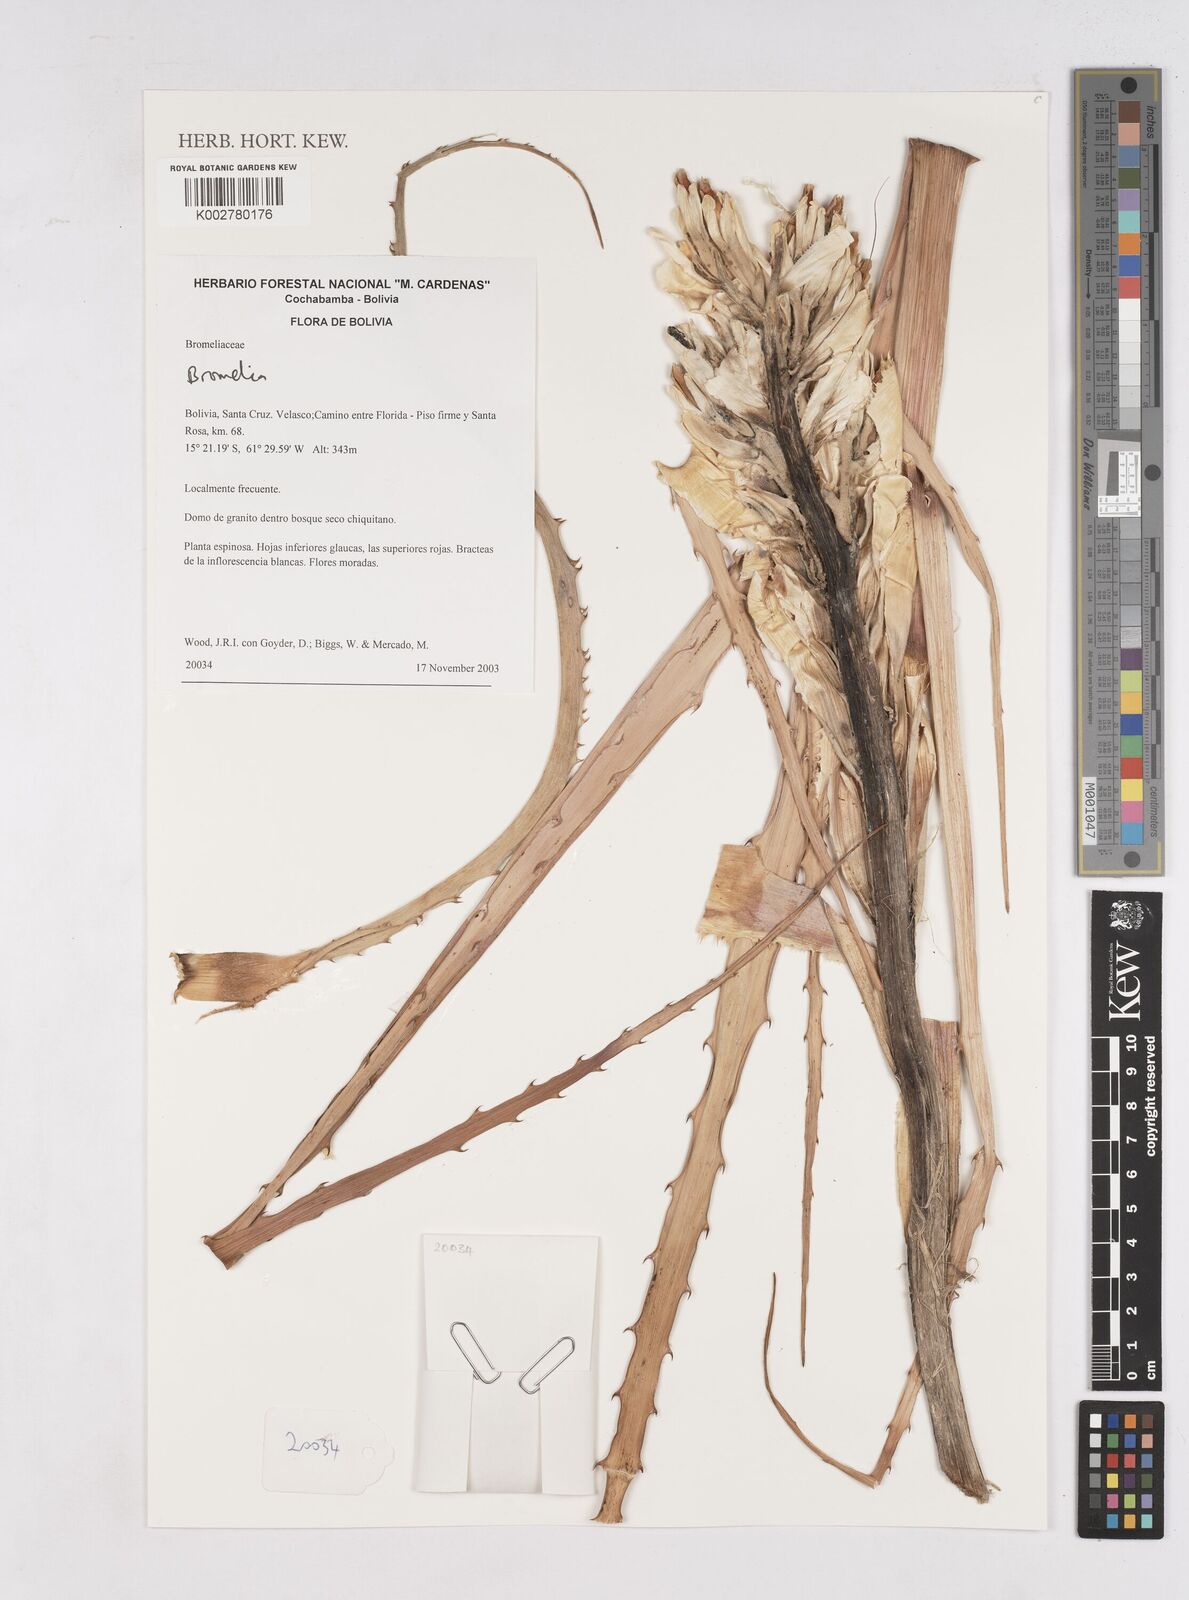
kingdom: Plantae
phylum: Tracheophyta
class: Liliopsida
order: Poales
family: Bromeliaceae
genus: Bromelia
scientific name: Bromelia
